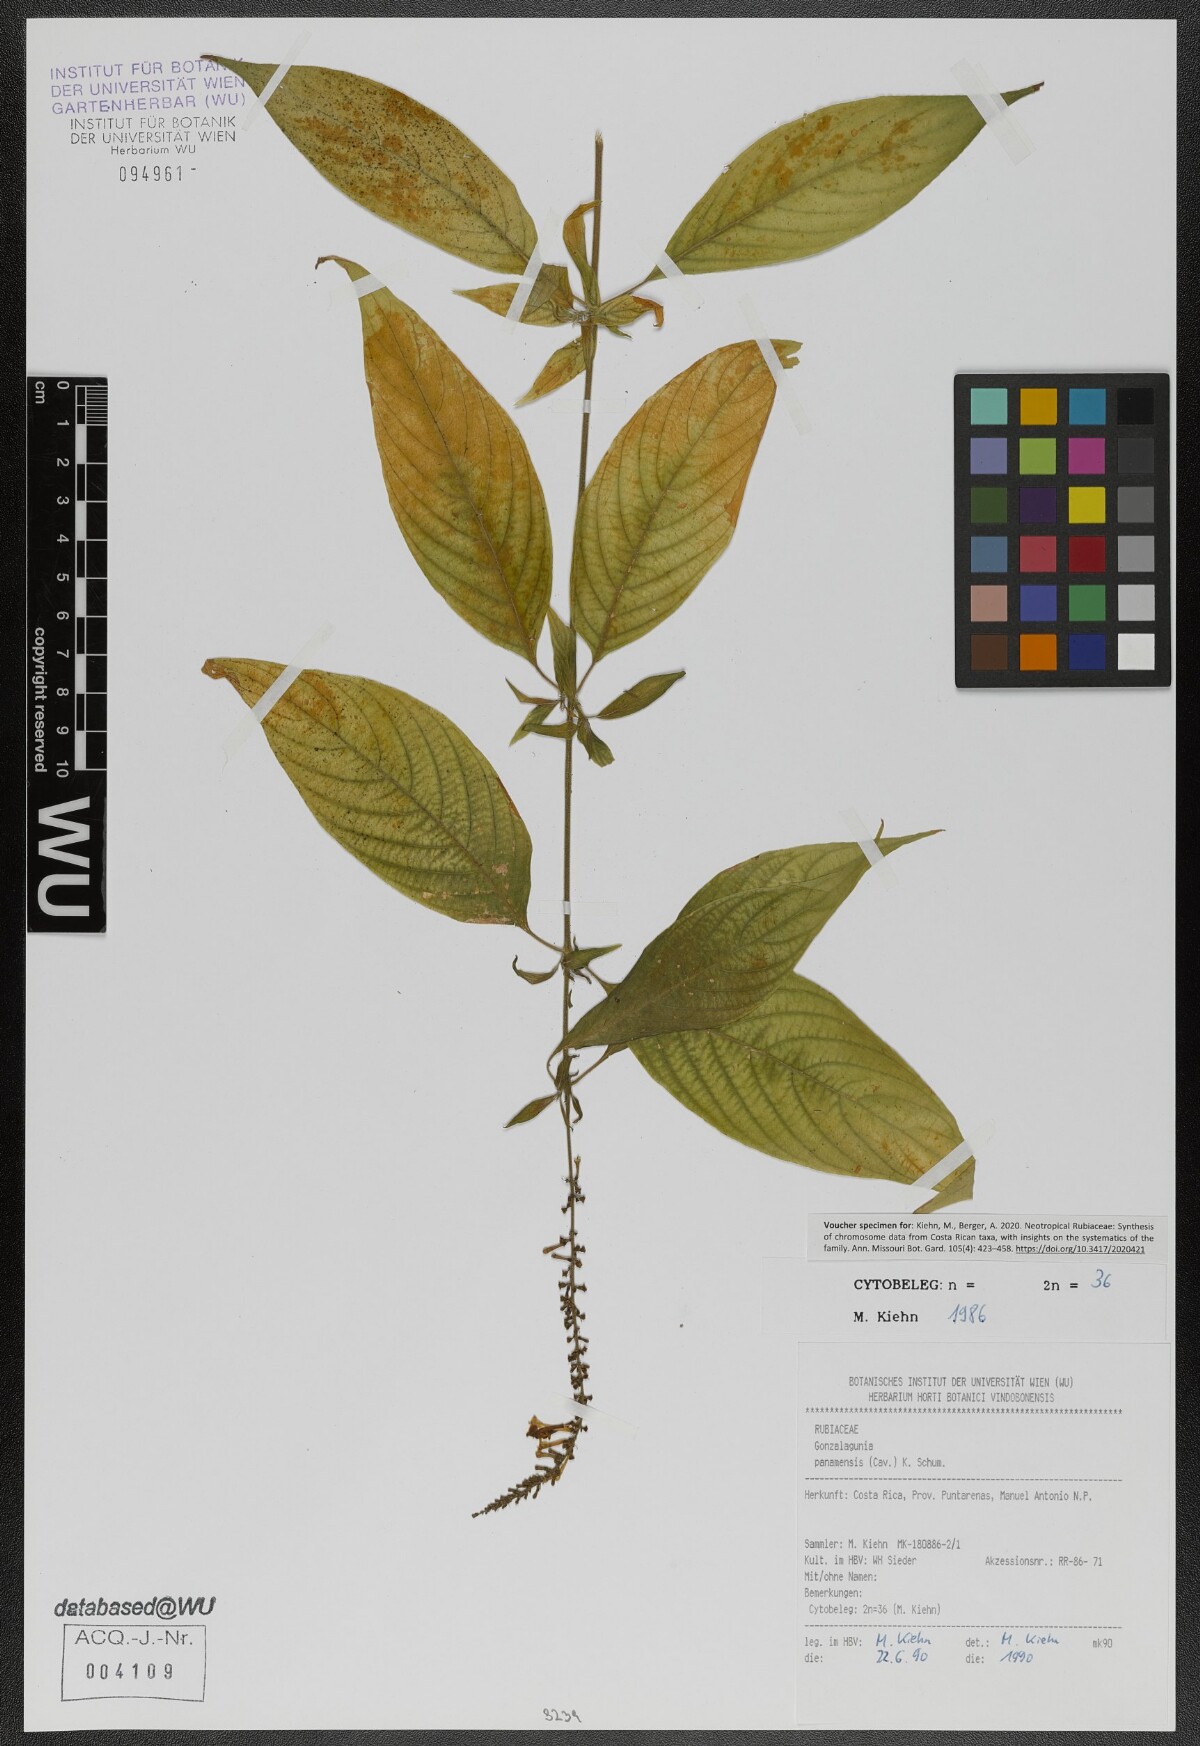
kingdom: Plantae
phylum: Tracheophyta
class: Magnoliopsida
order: Gentianales
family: Rubiaceae
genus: Gonzalagunia
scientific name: Gonzalagunia panamensis
